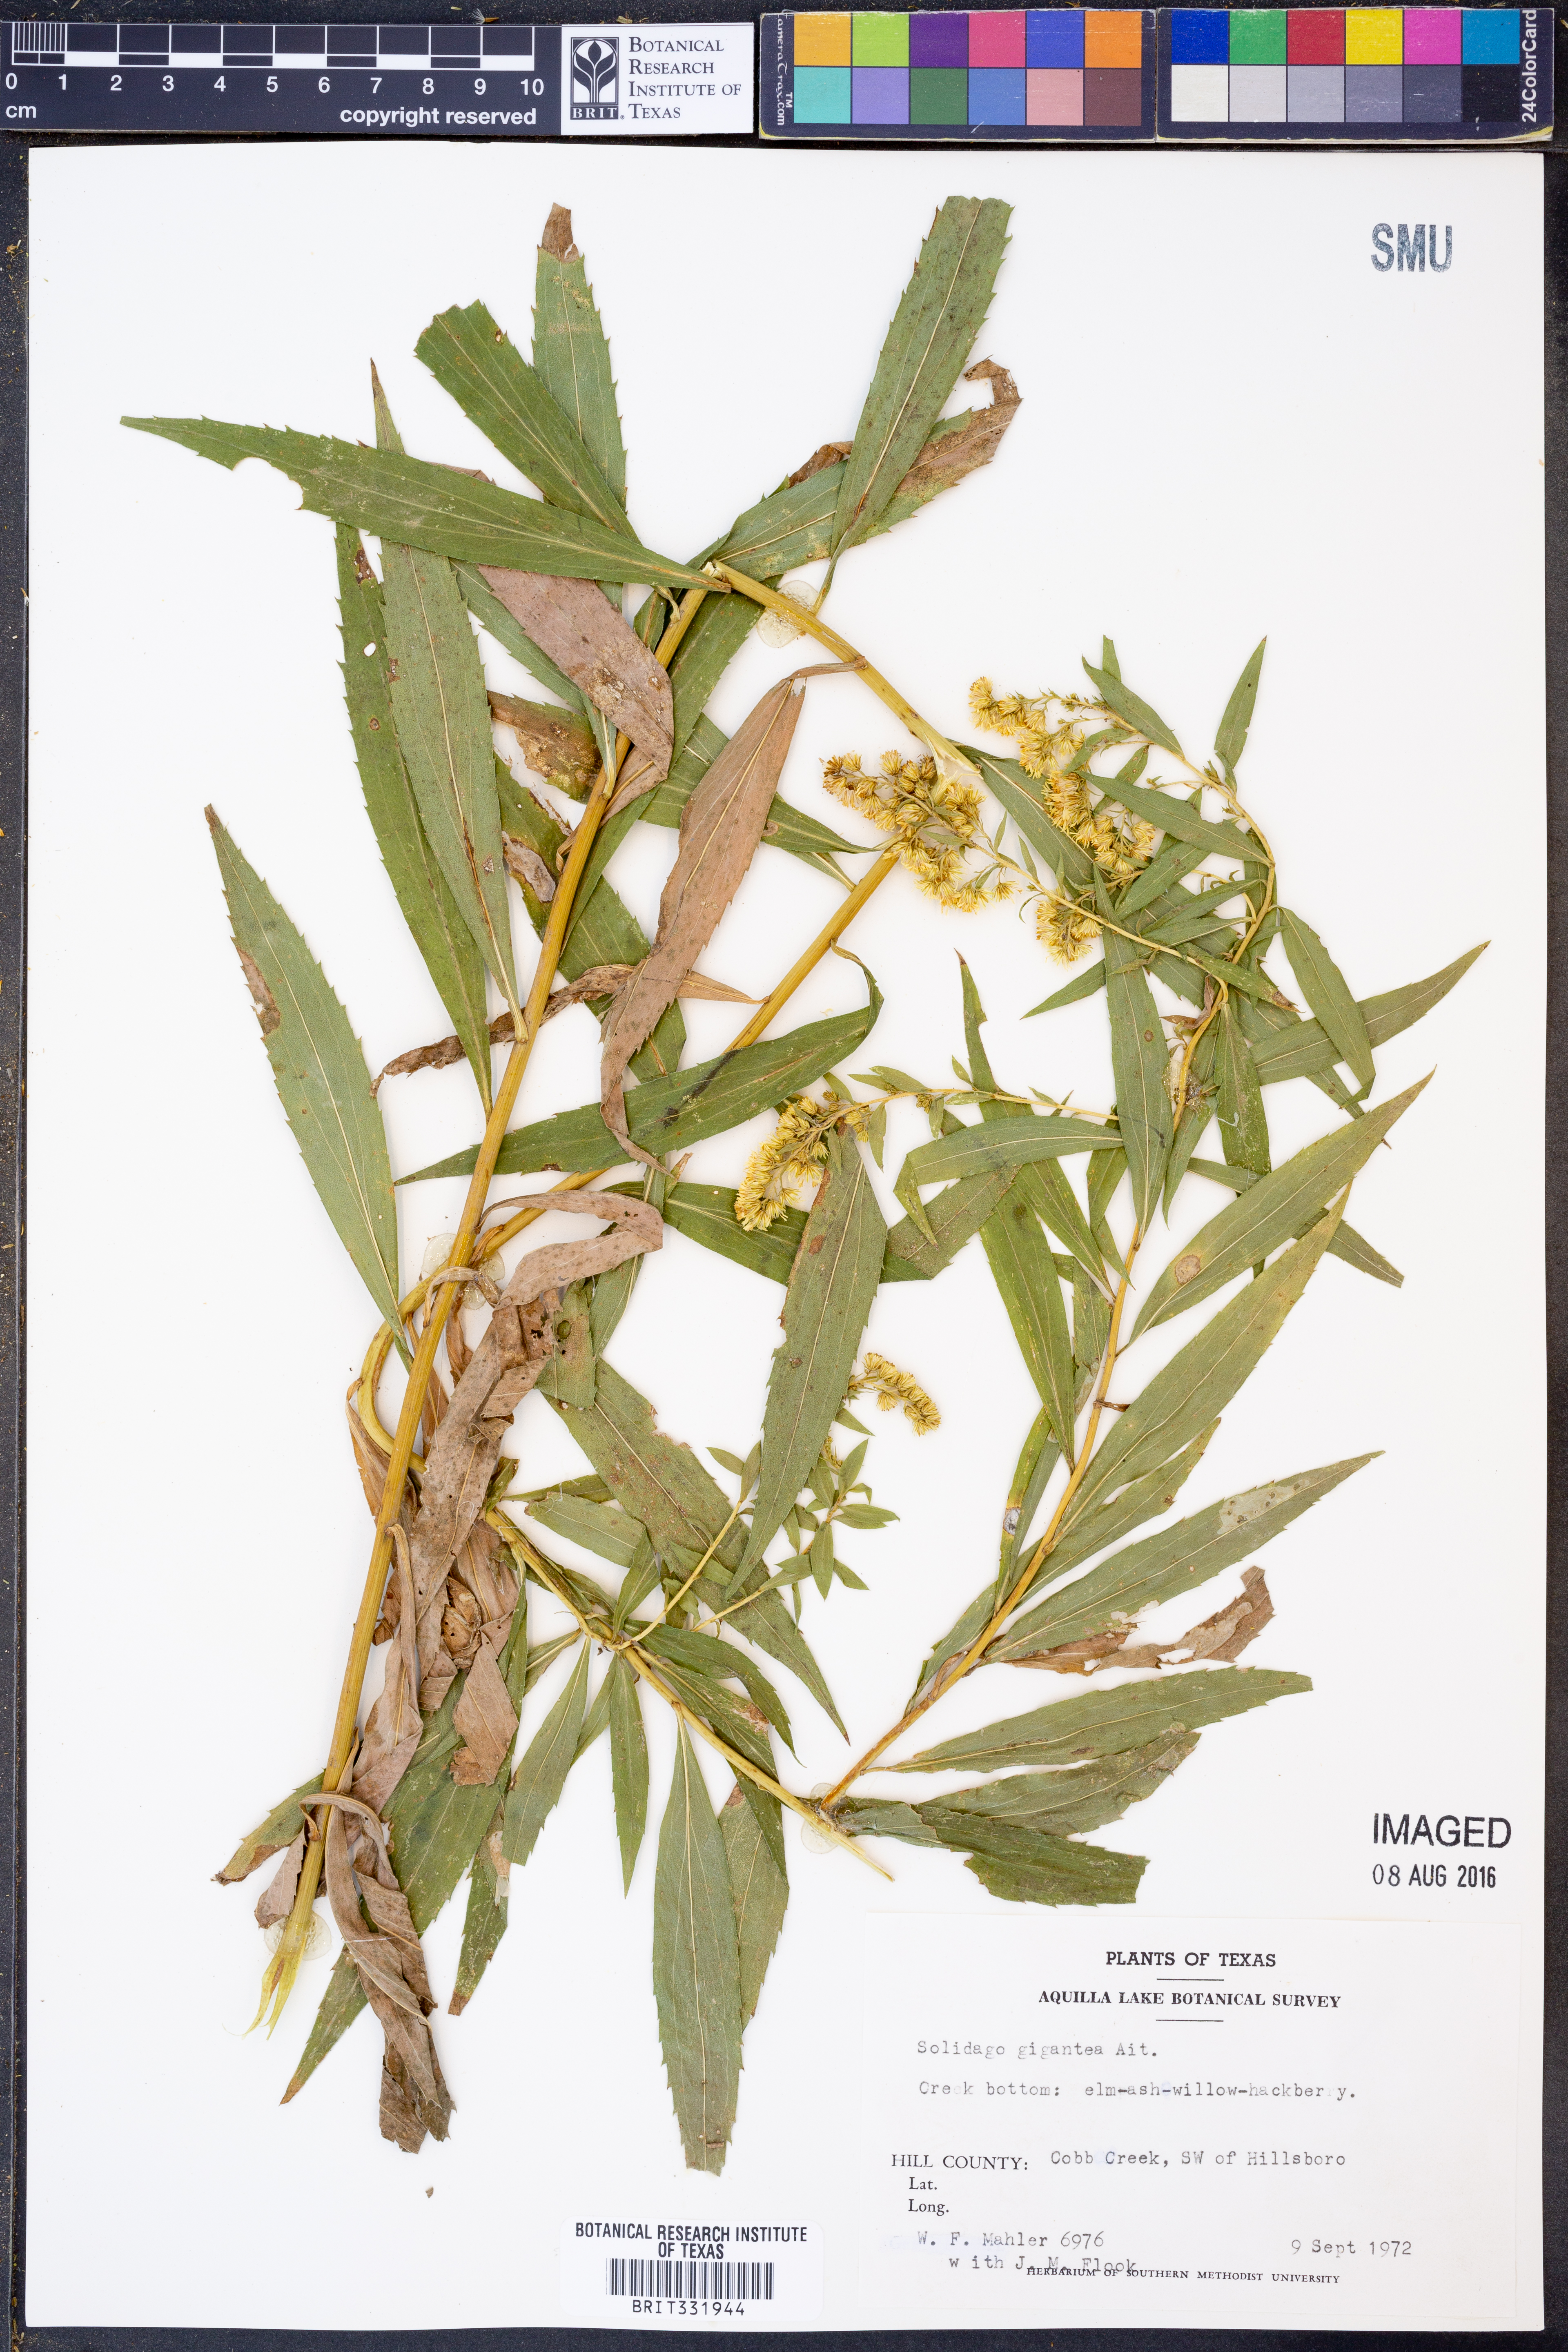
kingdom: Plantae
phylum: Tracheophyta
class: Magnoliopsida
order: Asterales
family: Asteraceae
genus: Solidago
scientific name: Solidago gigantea
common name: Giant goldenrod
